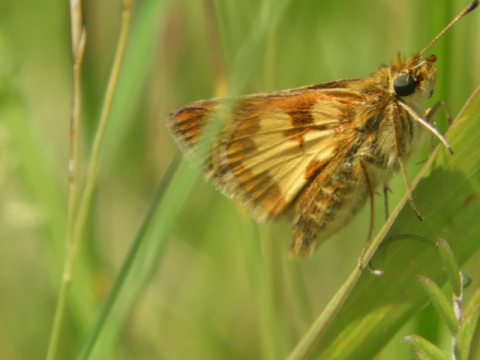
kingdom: Animalia
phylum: Arthropoda
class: Insecta
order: Lepidoptera
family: Hesperiidae
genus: Polites
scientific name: Polites coras
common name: Peck's Skipper
